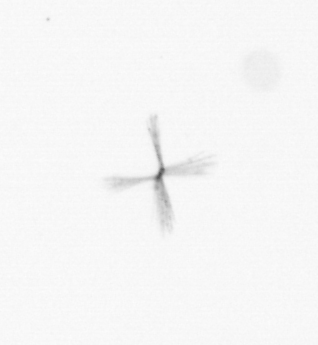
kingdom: Chromista
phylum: Ochrophyta
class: Bacillariophyceae
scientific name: Bacillariophyceae
